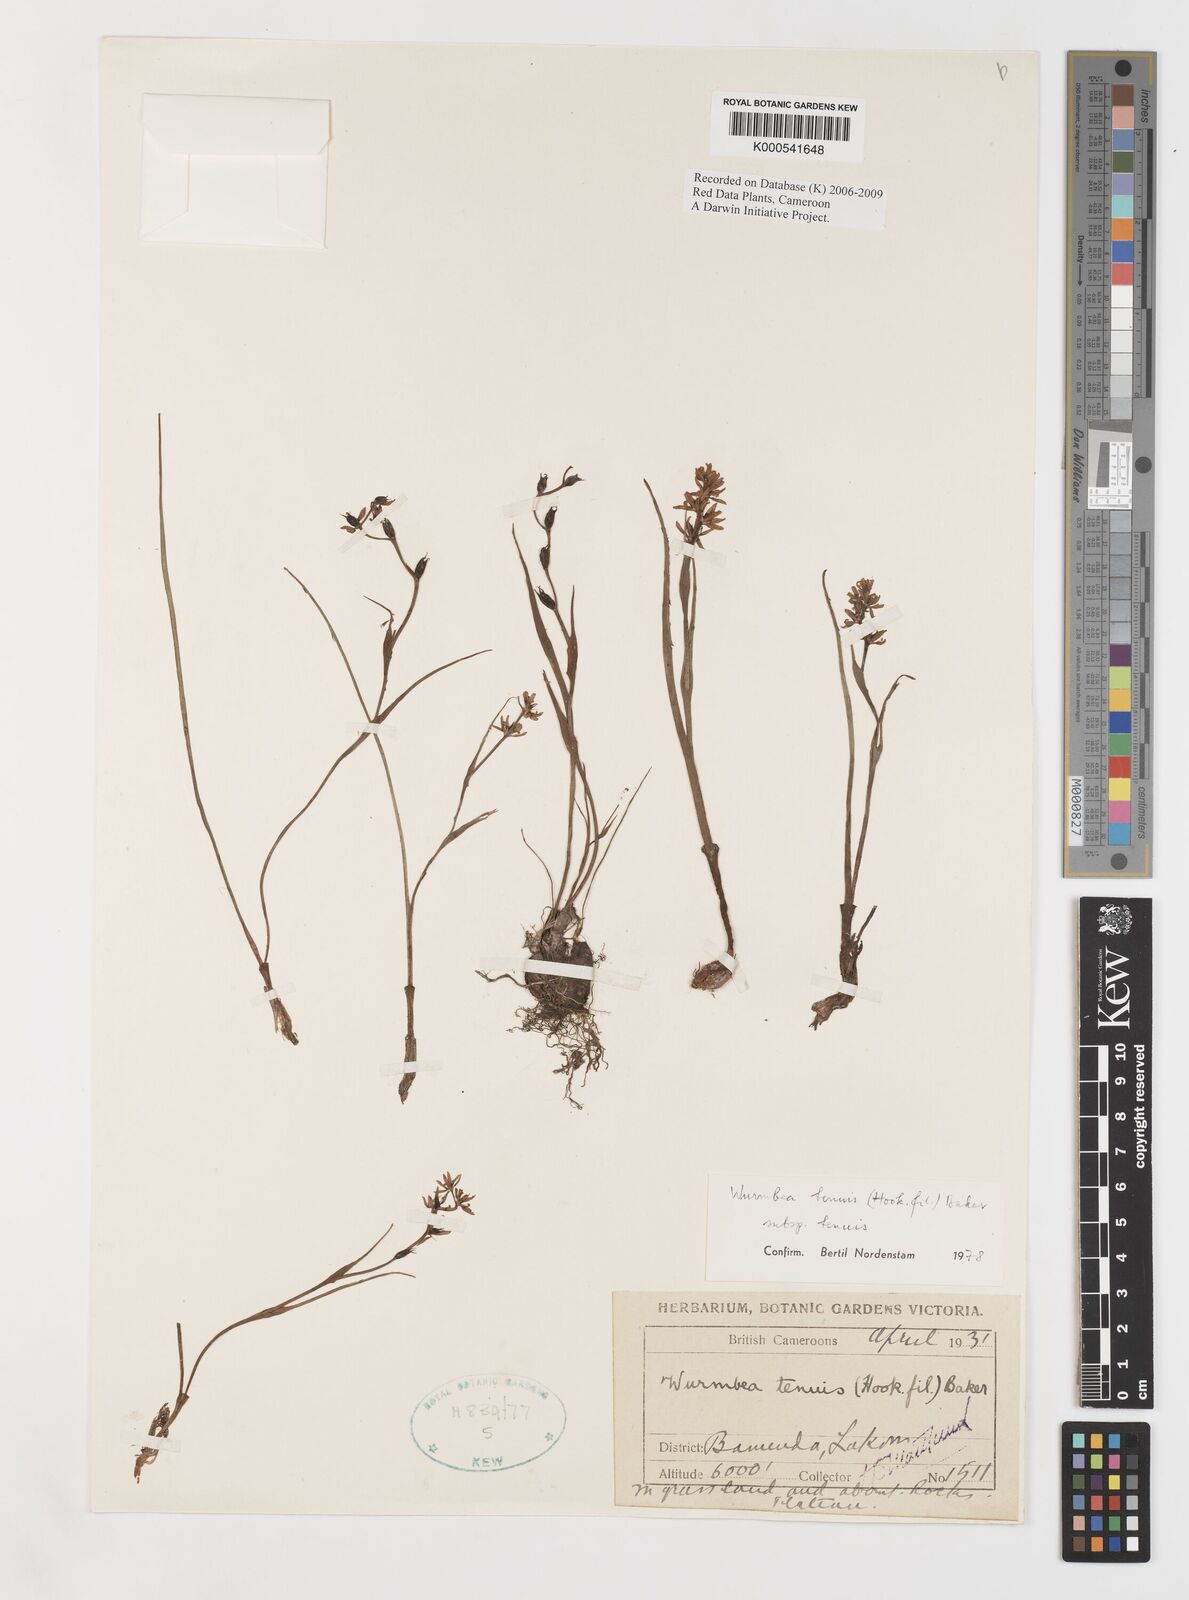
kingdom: Plantae
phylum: Tracheophyta
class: Liliopsida
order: Liliales
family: Colchicaceae
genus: Wurmbea
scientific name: Wurmbea tenuis
